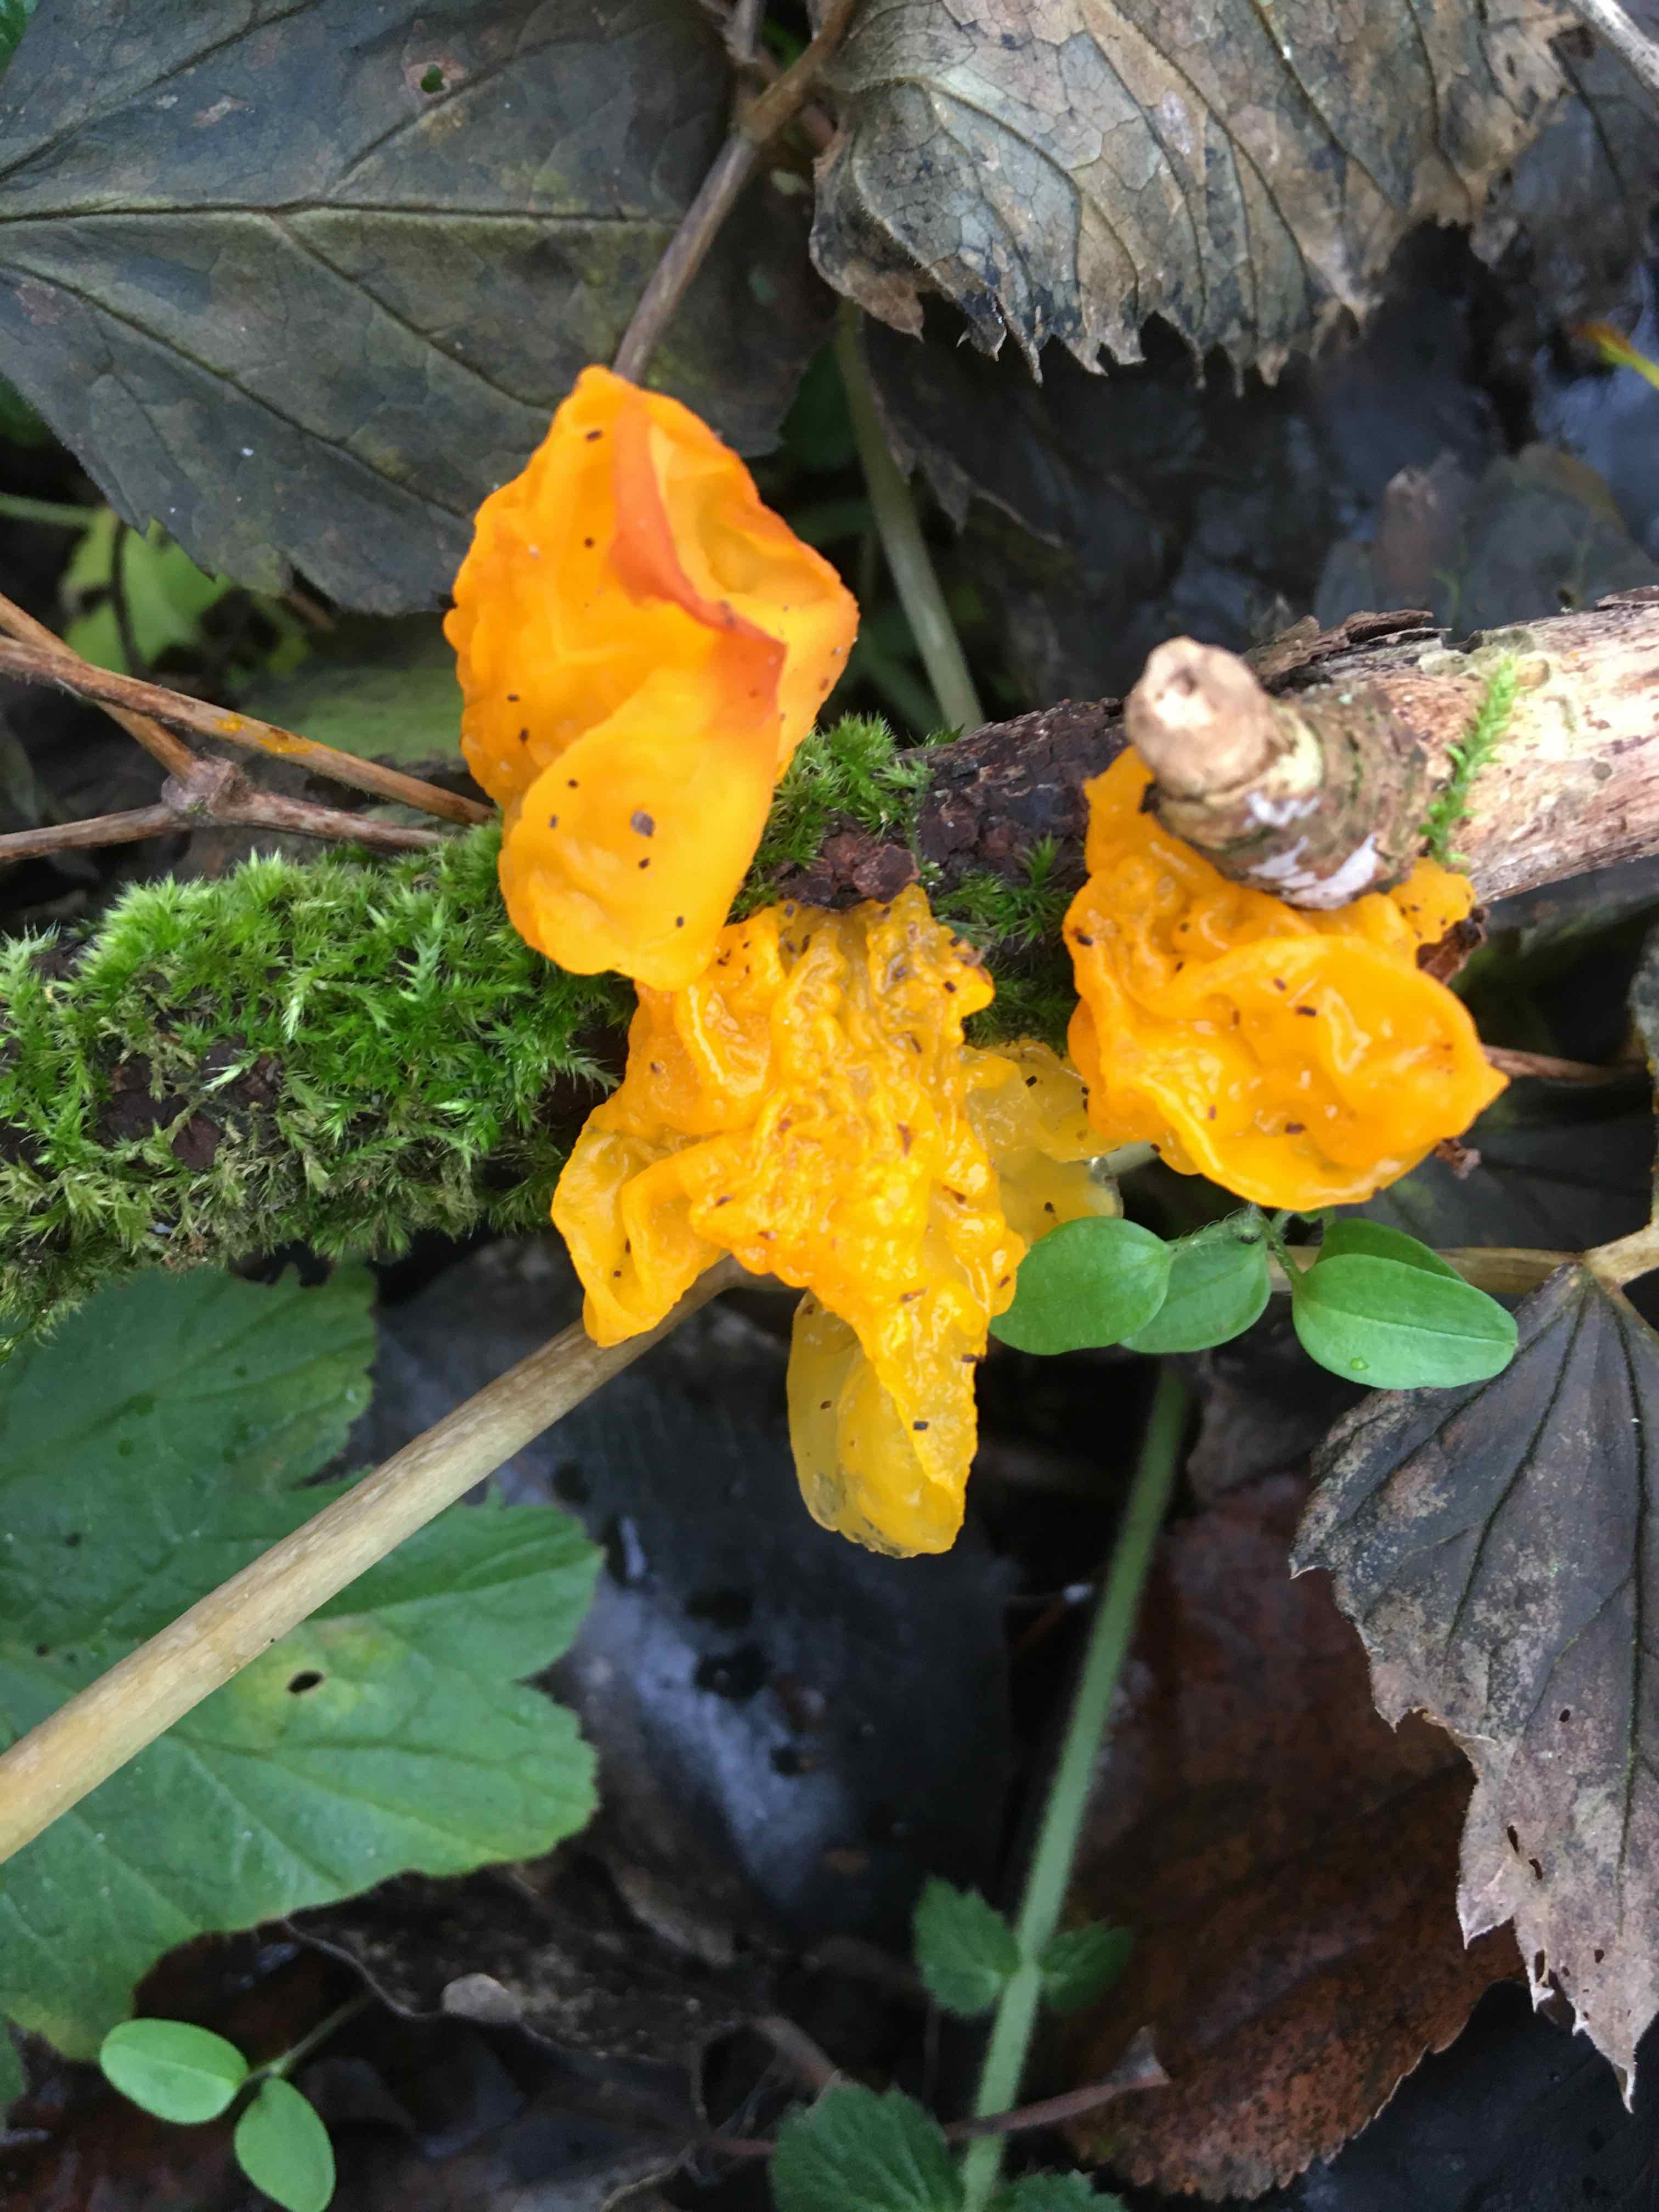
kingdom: Fungi
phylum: Basidiomycota
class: Tremellomycetes
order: Tremellales
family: Tremellaceae
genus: Tremella
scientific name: Tremella mesenterica
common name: gul bævresvamp
